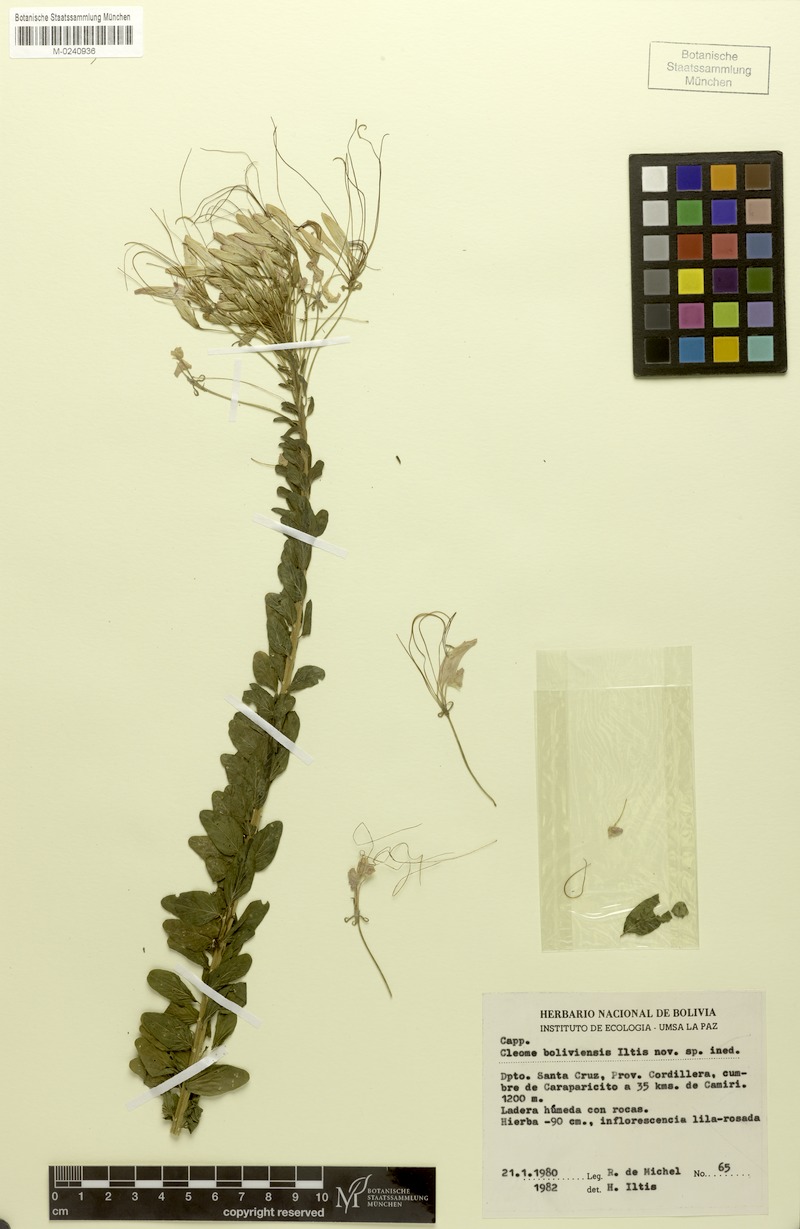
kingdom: Plantae
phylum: Tracheophyta
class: Magnoliopsida
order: Brassicales
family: Cleomaceae
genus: Tarenaya
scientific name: Tarenaya boliviensis
